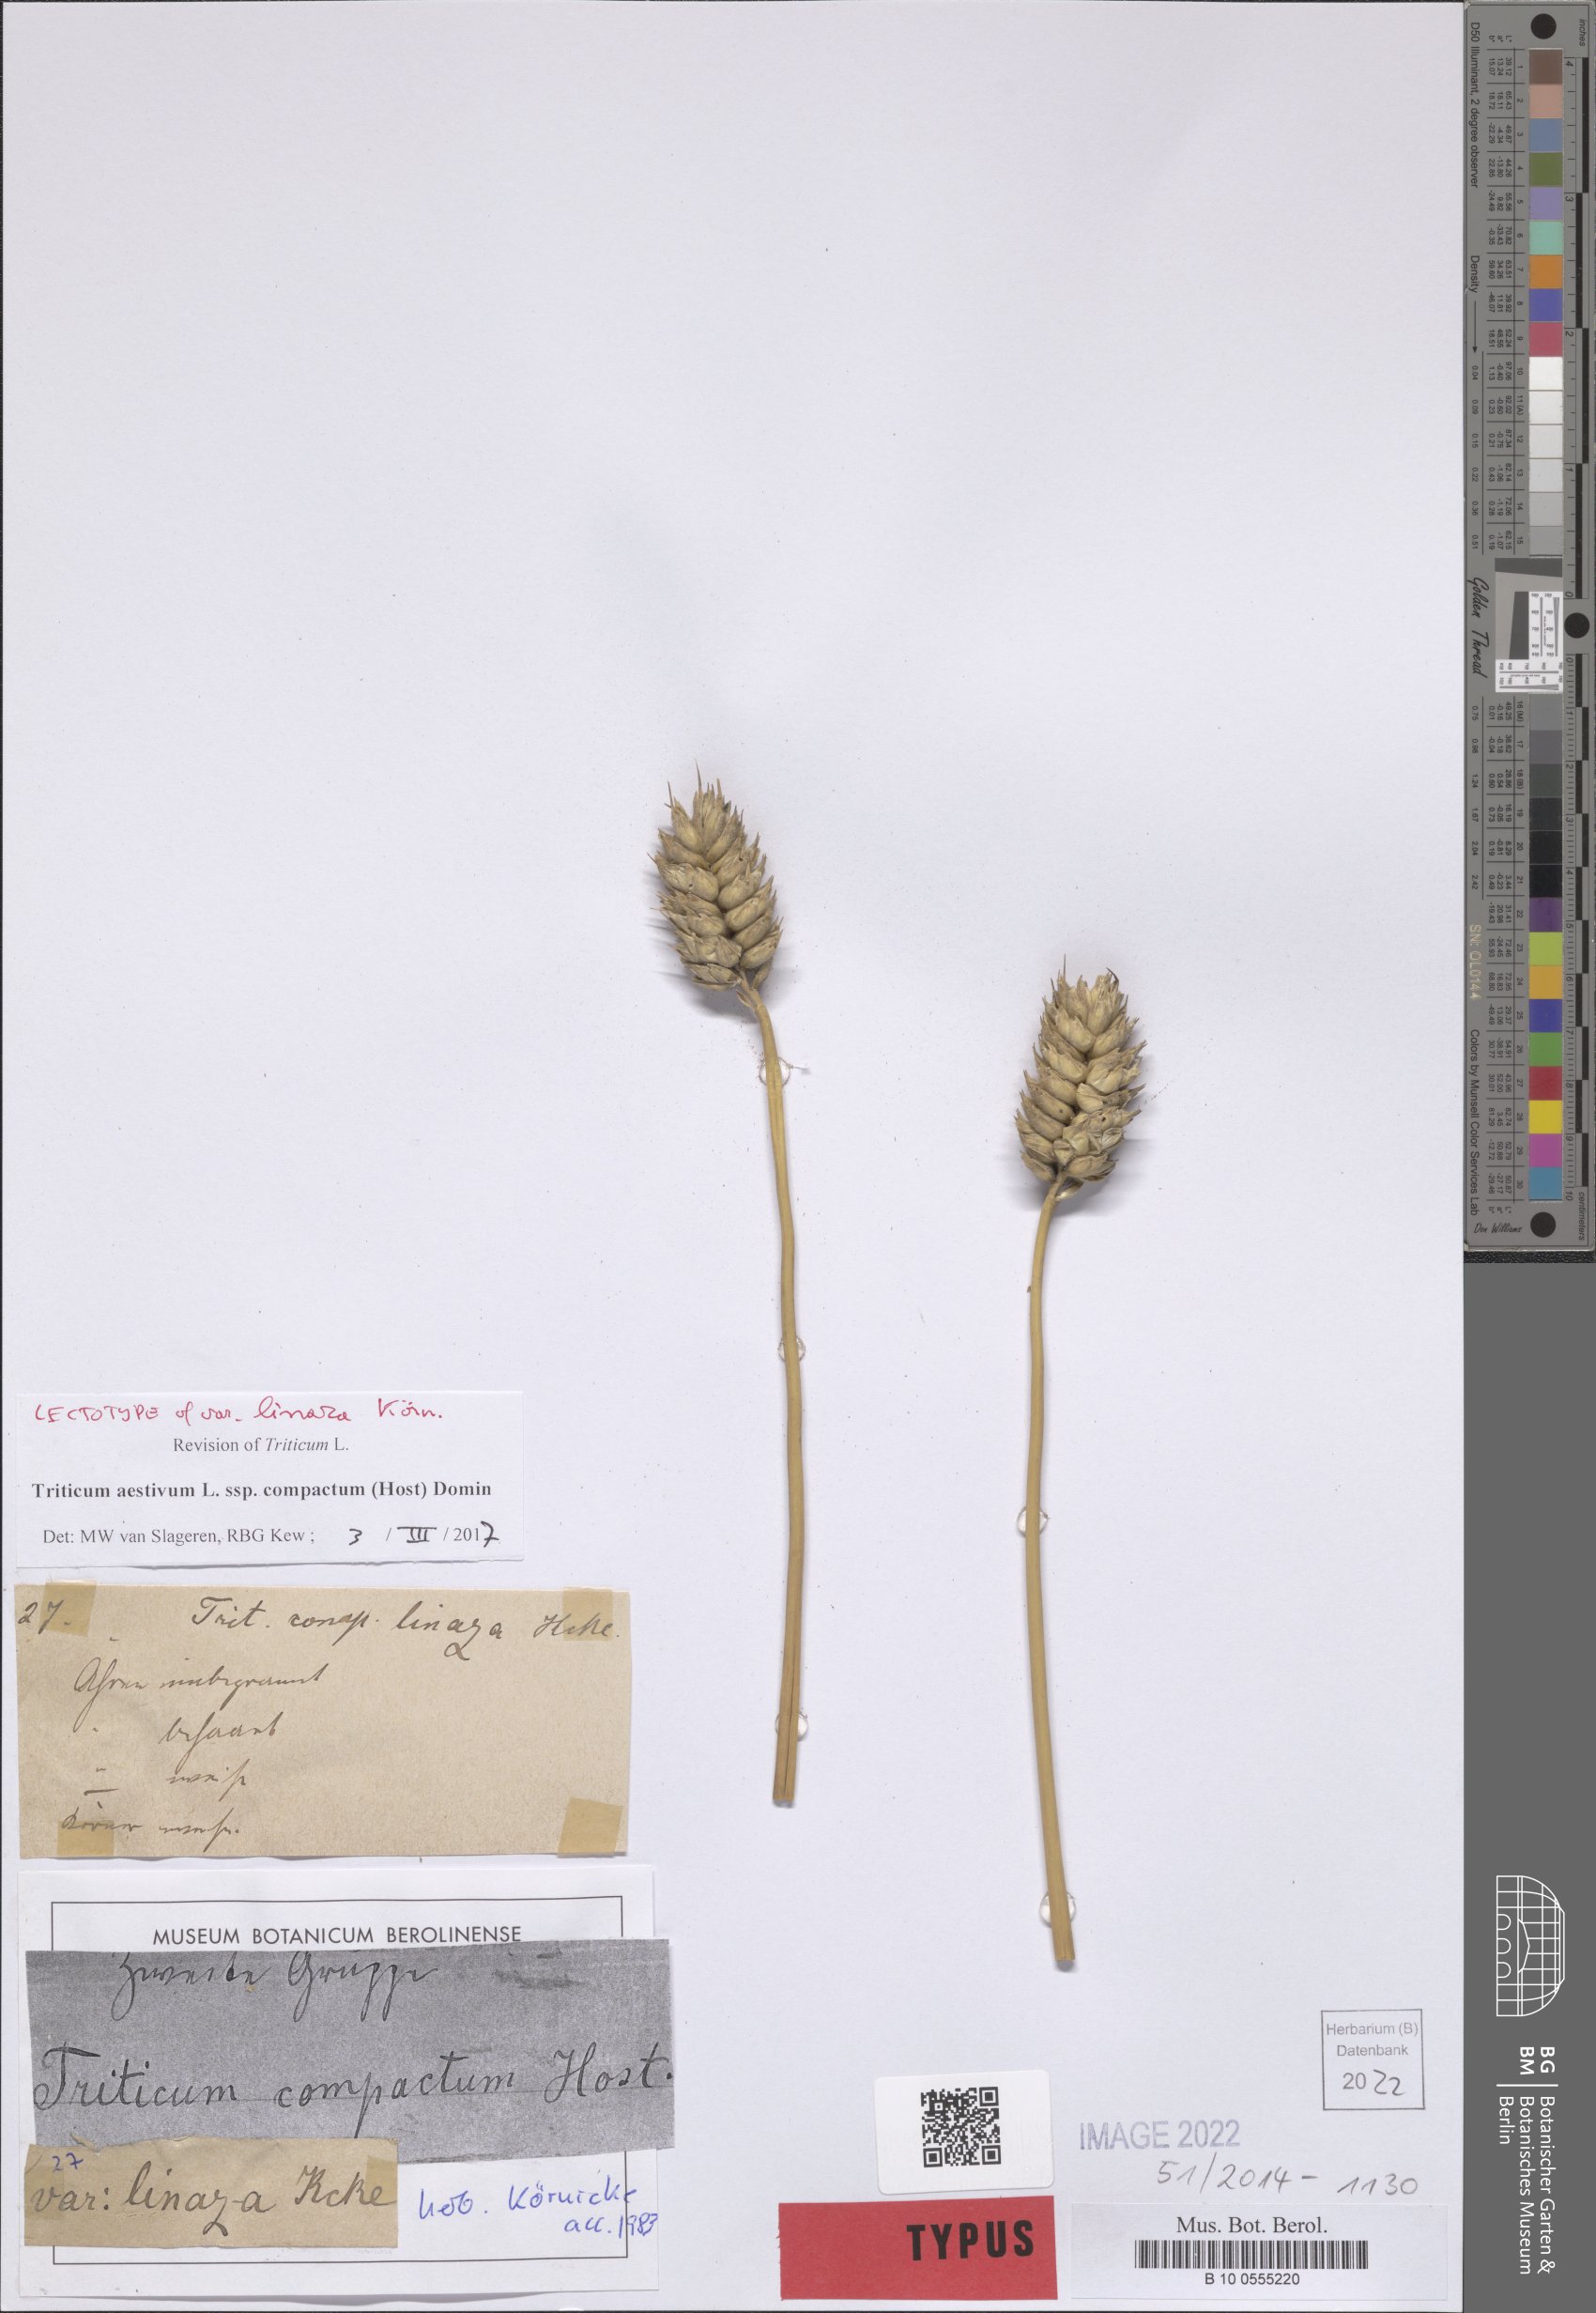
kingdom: Plantae
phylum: Tracheophyta
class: Liliopsida
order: Poales
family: Poaceae
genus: Triticum
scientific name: Triticum aestivum
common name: Common wheat
